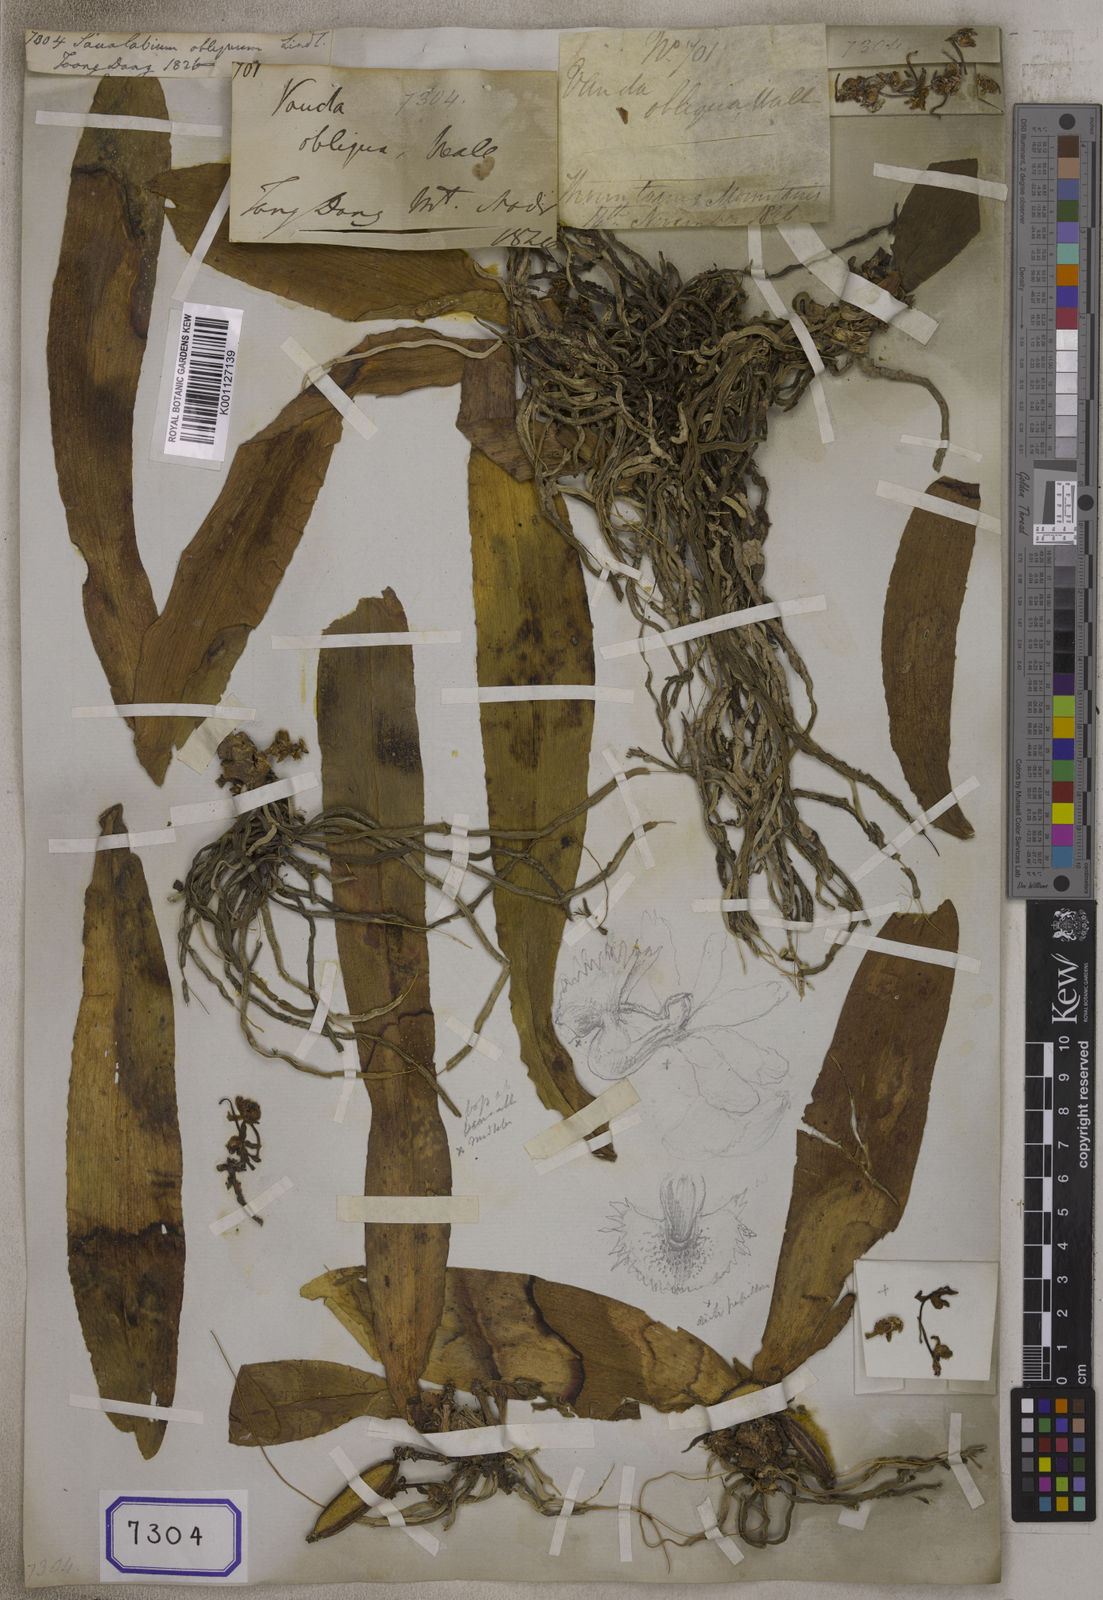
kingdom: Plantae
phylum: Tracheophyta
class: Liliopsida
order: Asparagales
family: Orchidaceae
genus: Gastrochilus
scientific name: Gastrochilus obliquus
